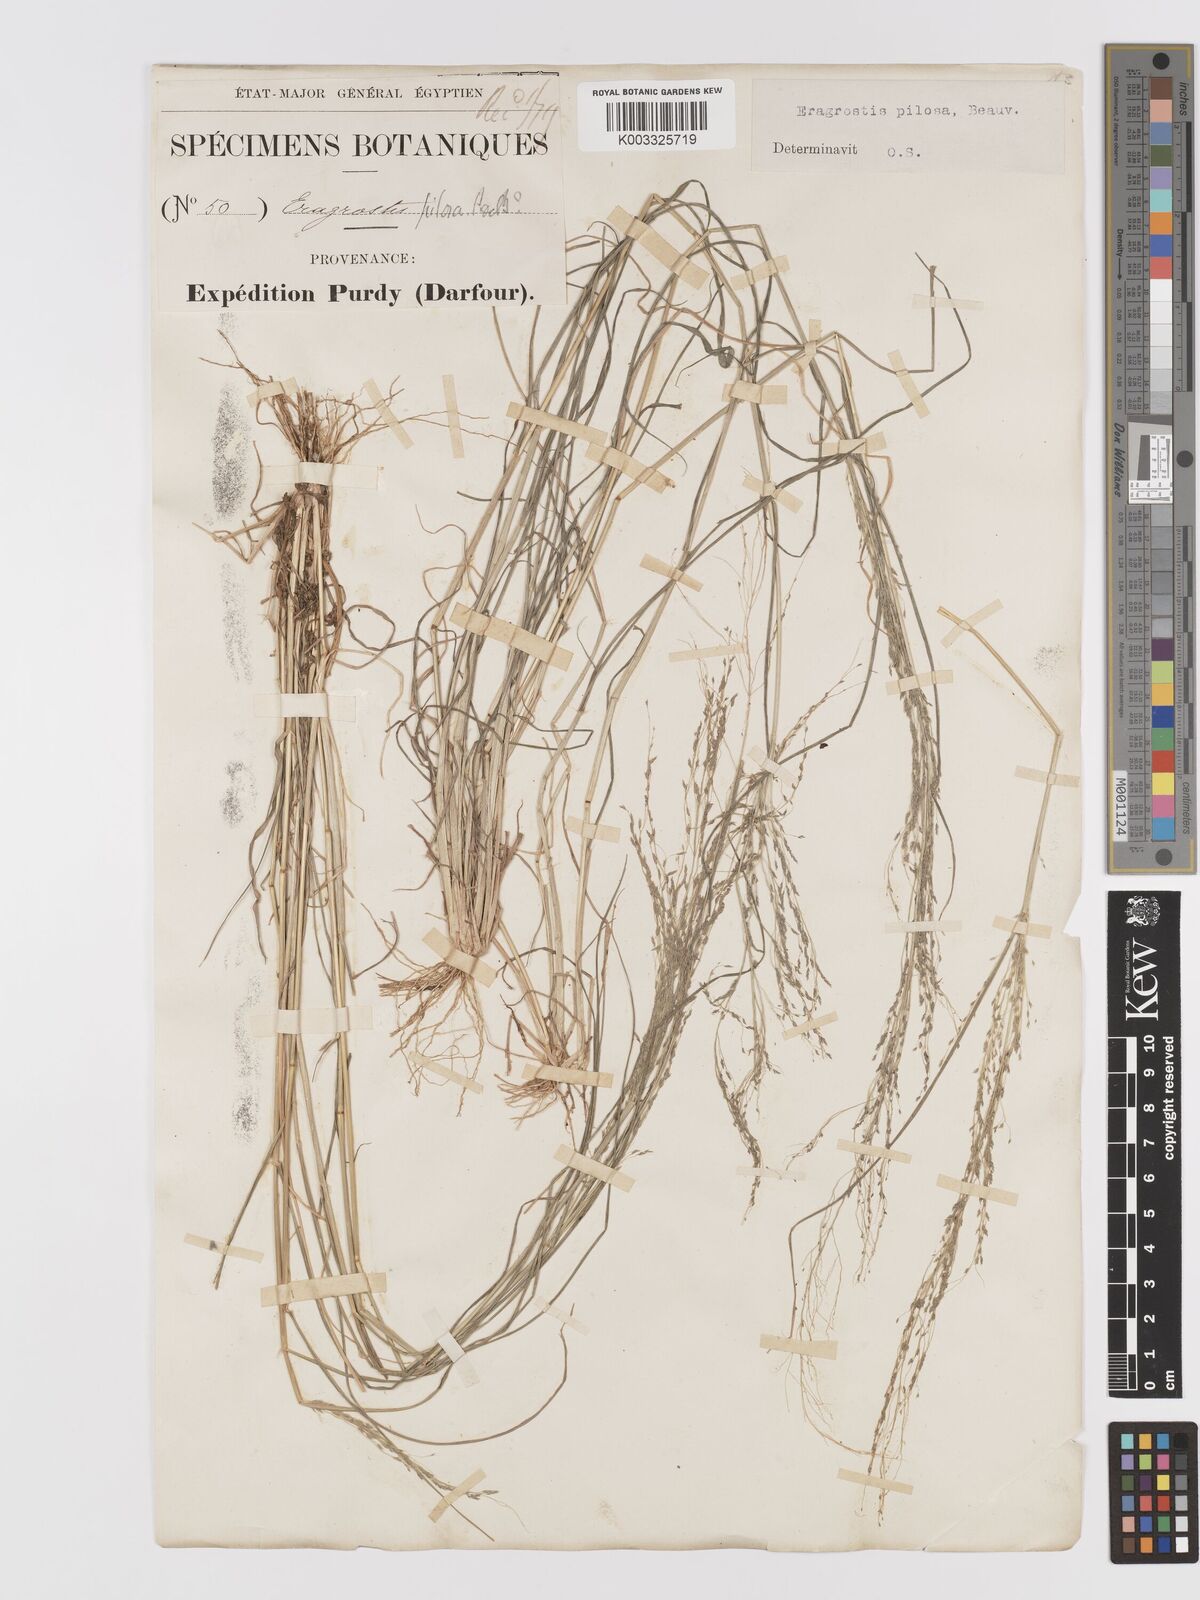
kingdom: Plantae
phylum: Tracheophyta
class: Liliopsida
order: Poales
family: Poaceae
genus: Eragrostis
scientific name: Eragrostis pilosa
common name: Indian lovegrass
